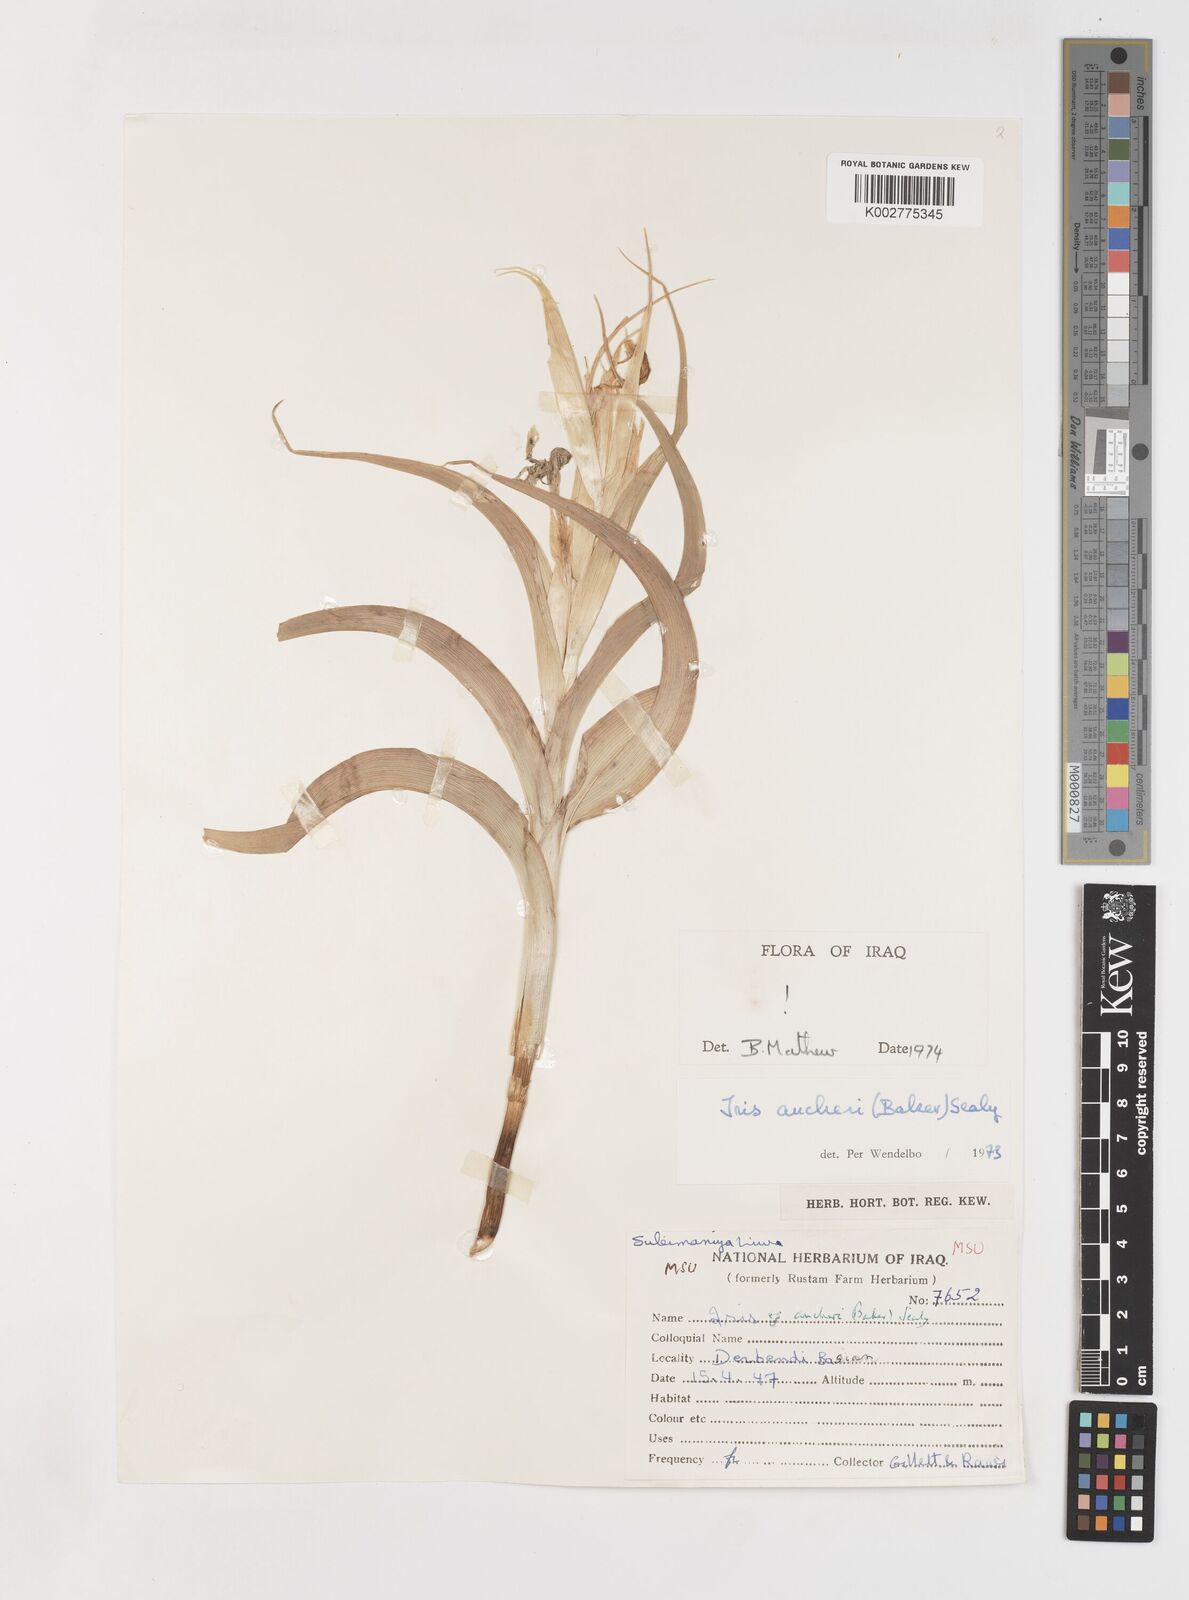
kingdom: Plantae
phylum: Tracheophyta
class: Liliopsida
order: Asparagales
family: Iridaceae
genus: Iris
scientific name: Iris aucheri
